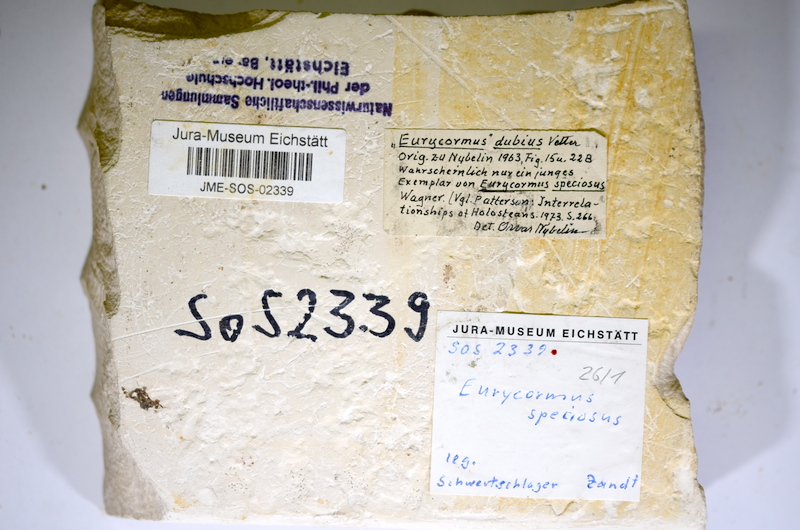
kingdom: Animalia
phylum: Chordata
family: Eurycormidae
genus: Eurycormus
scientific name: Eurycormus speciosus
